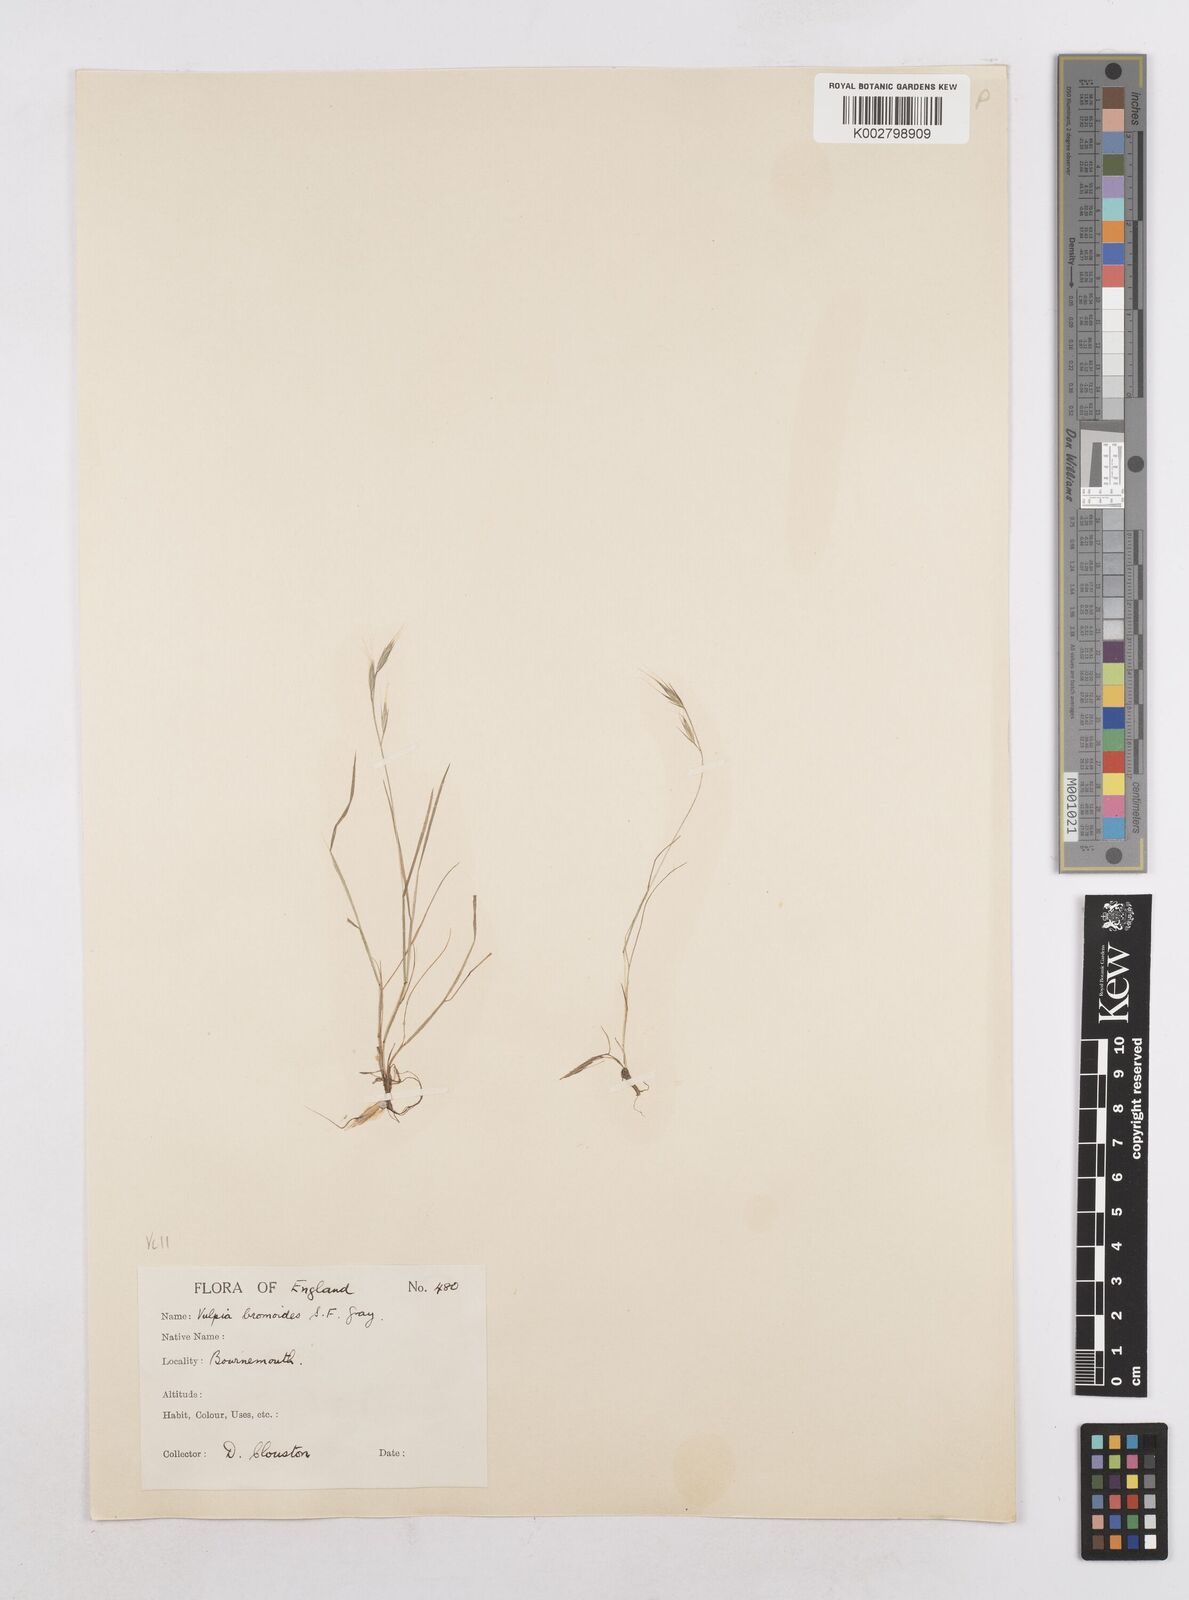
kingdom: Plantae
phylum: Tracheophyta
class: Liliopsida
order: Poales
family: Poaceae
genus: Festuca
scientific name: Festuca bromoides
